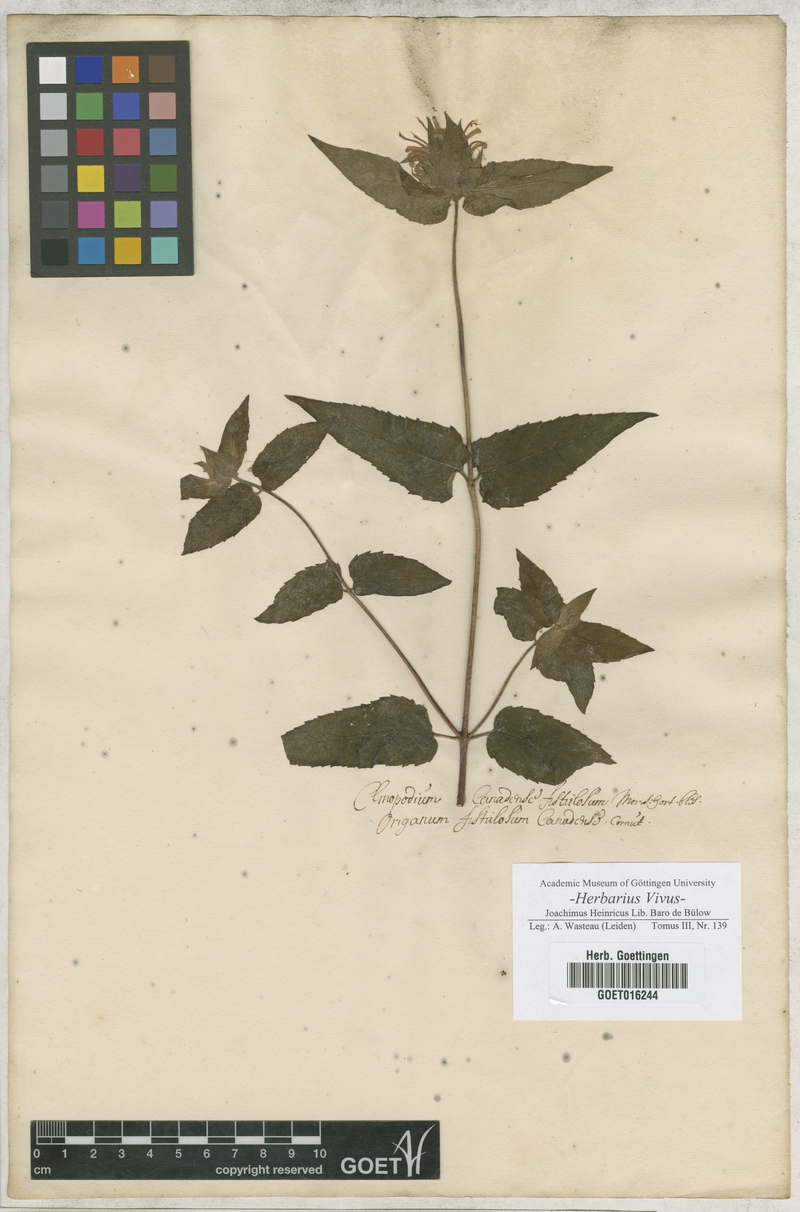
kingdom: Plantae
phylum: Tracheophyta
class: Magnoliopsida
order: Lamiales
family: Lamiaceae
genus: Monarda
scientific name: Monarda fistulosa
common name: Purple beebalm
